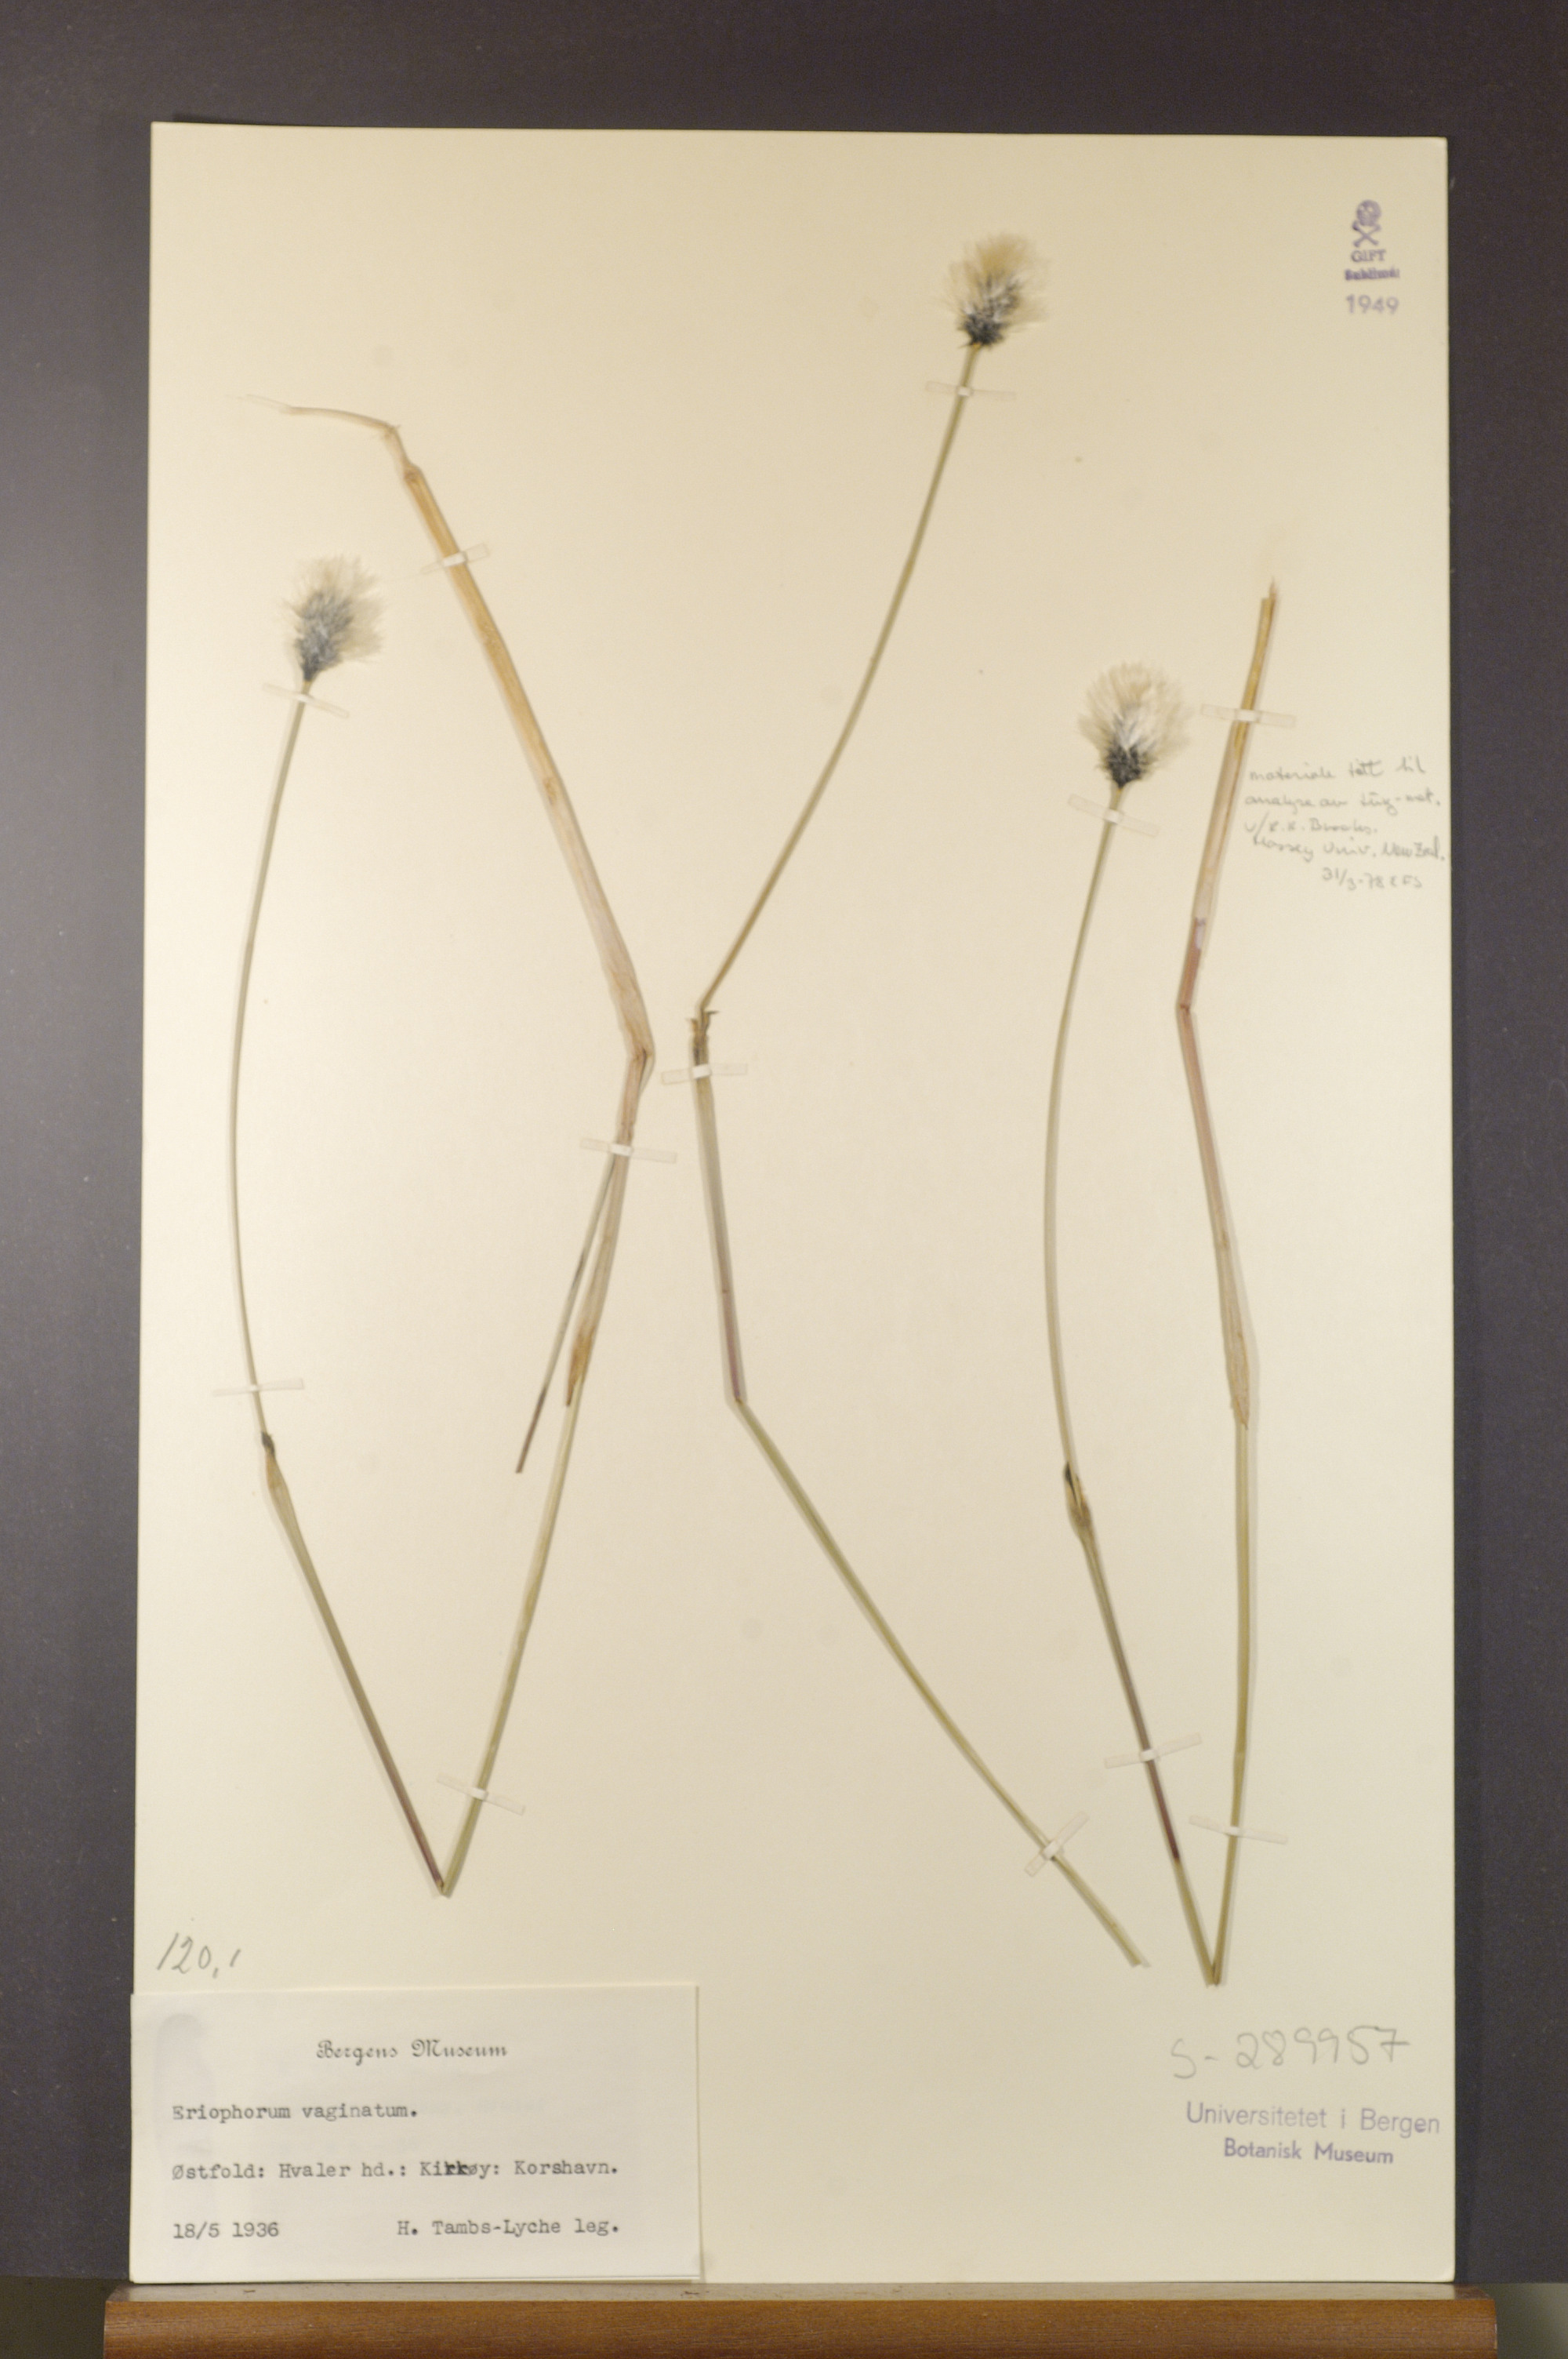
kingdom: Plantae
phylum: Tracheophyta
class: Liliopsida
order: Poales
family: Cyperaceae
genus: Eriophorum
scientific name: Eriophorum vaginatum
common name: Hare's-tail cottongrass
